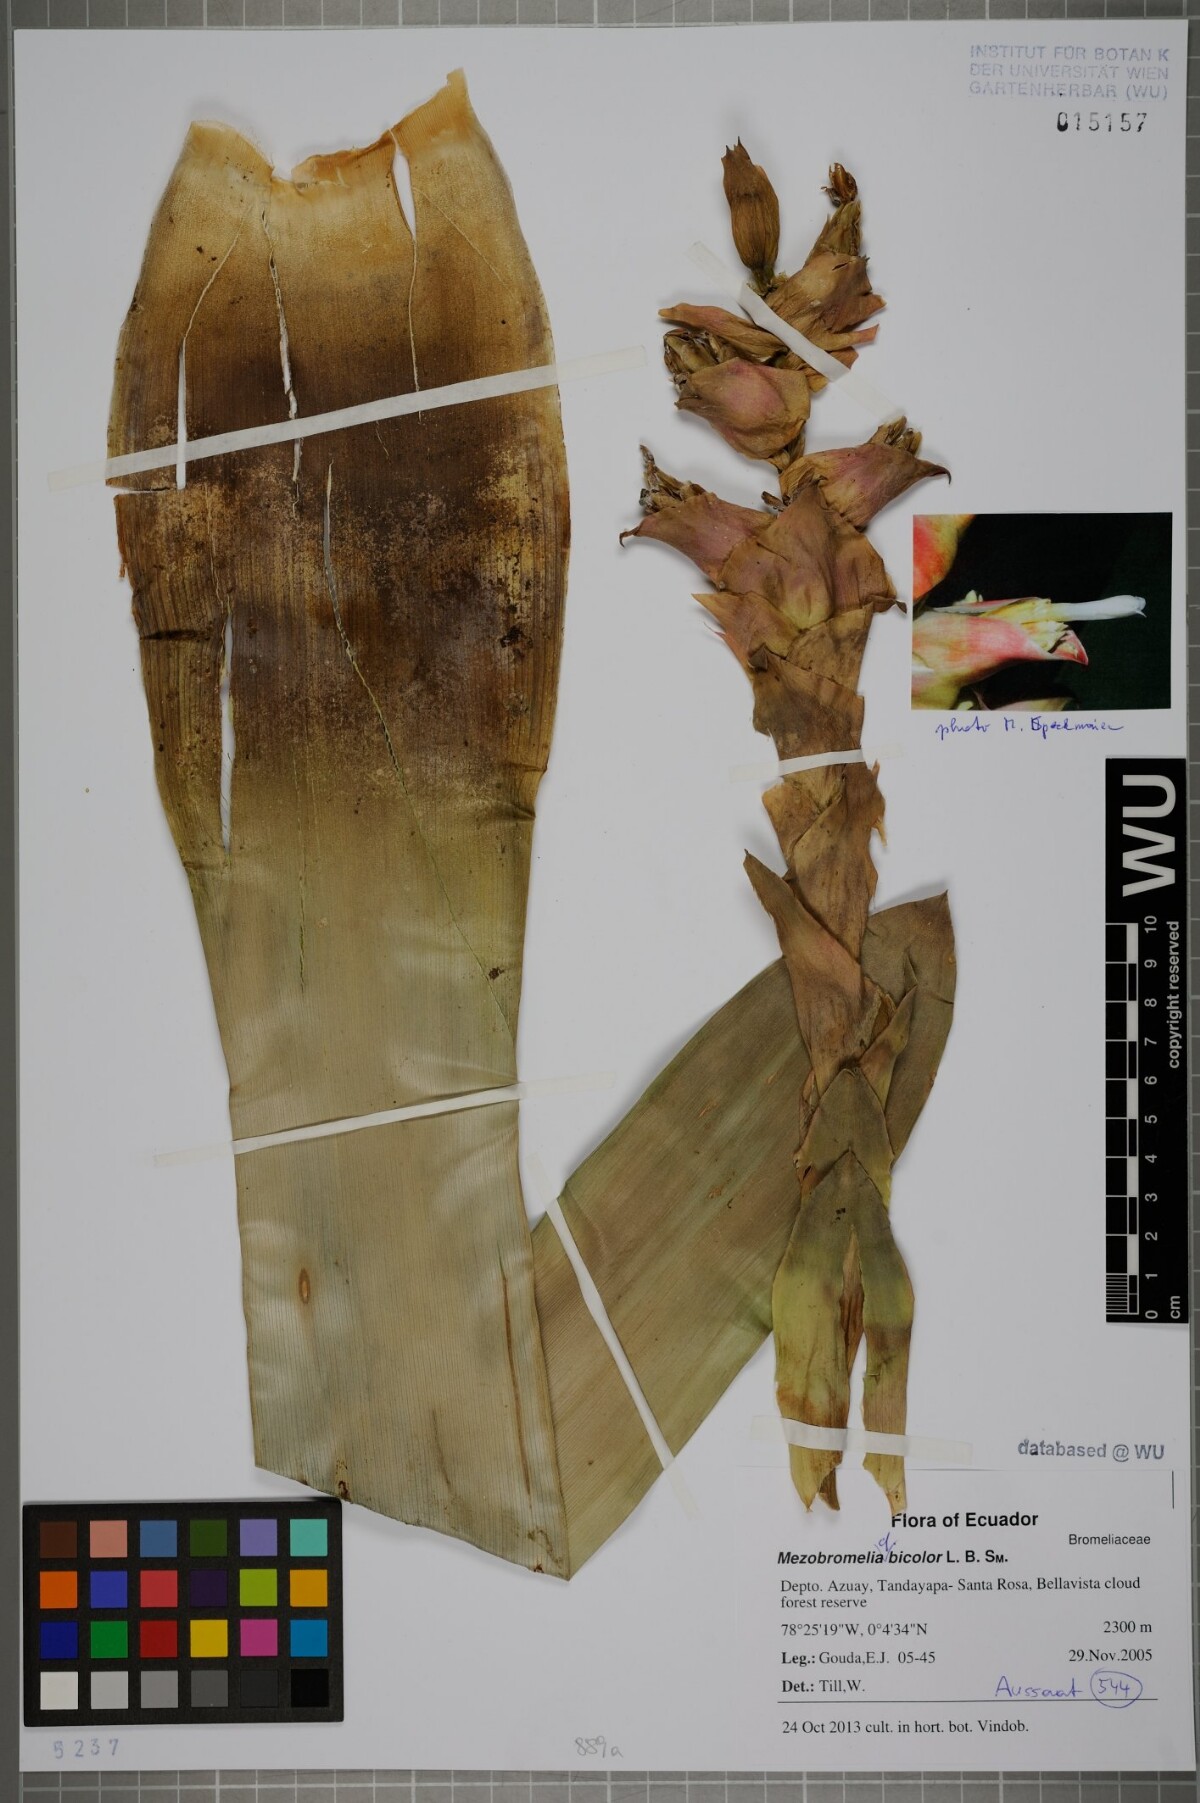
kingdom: Plantae
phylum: Tracheophyta
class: Liliopsida
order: Poales
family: Bromeliaceae
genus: Guzmania
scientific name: Guzmania variegata
